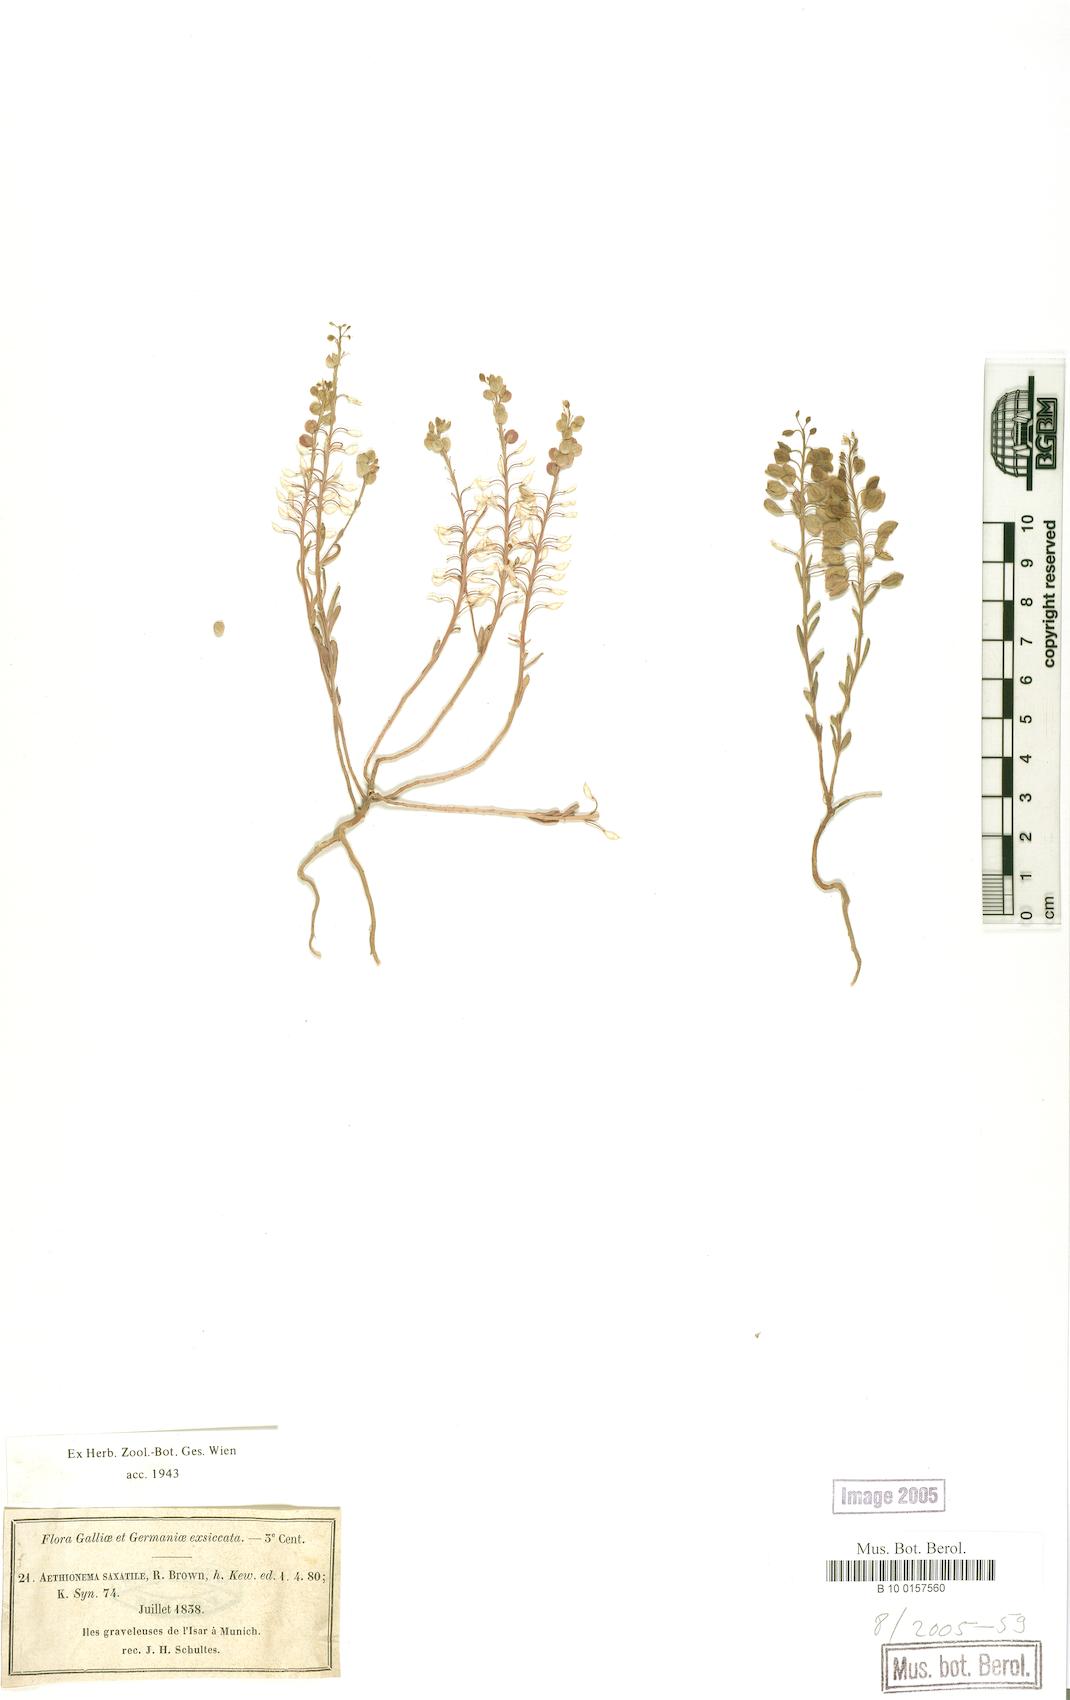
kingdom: Plantae
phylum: Tracheophyta
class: Magnoliopsida
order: Brassicales
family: Brassicaceae
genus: Aethionema
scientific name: Aethionema saxatile
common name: Burnt candytuft
